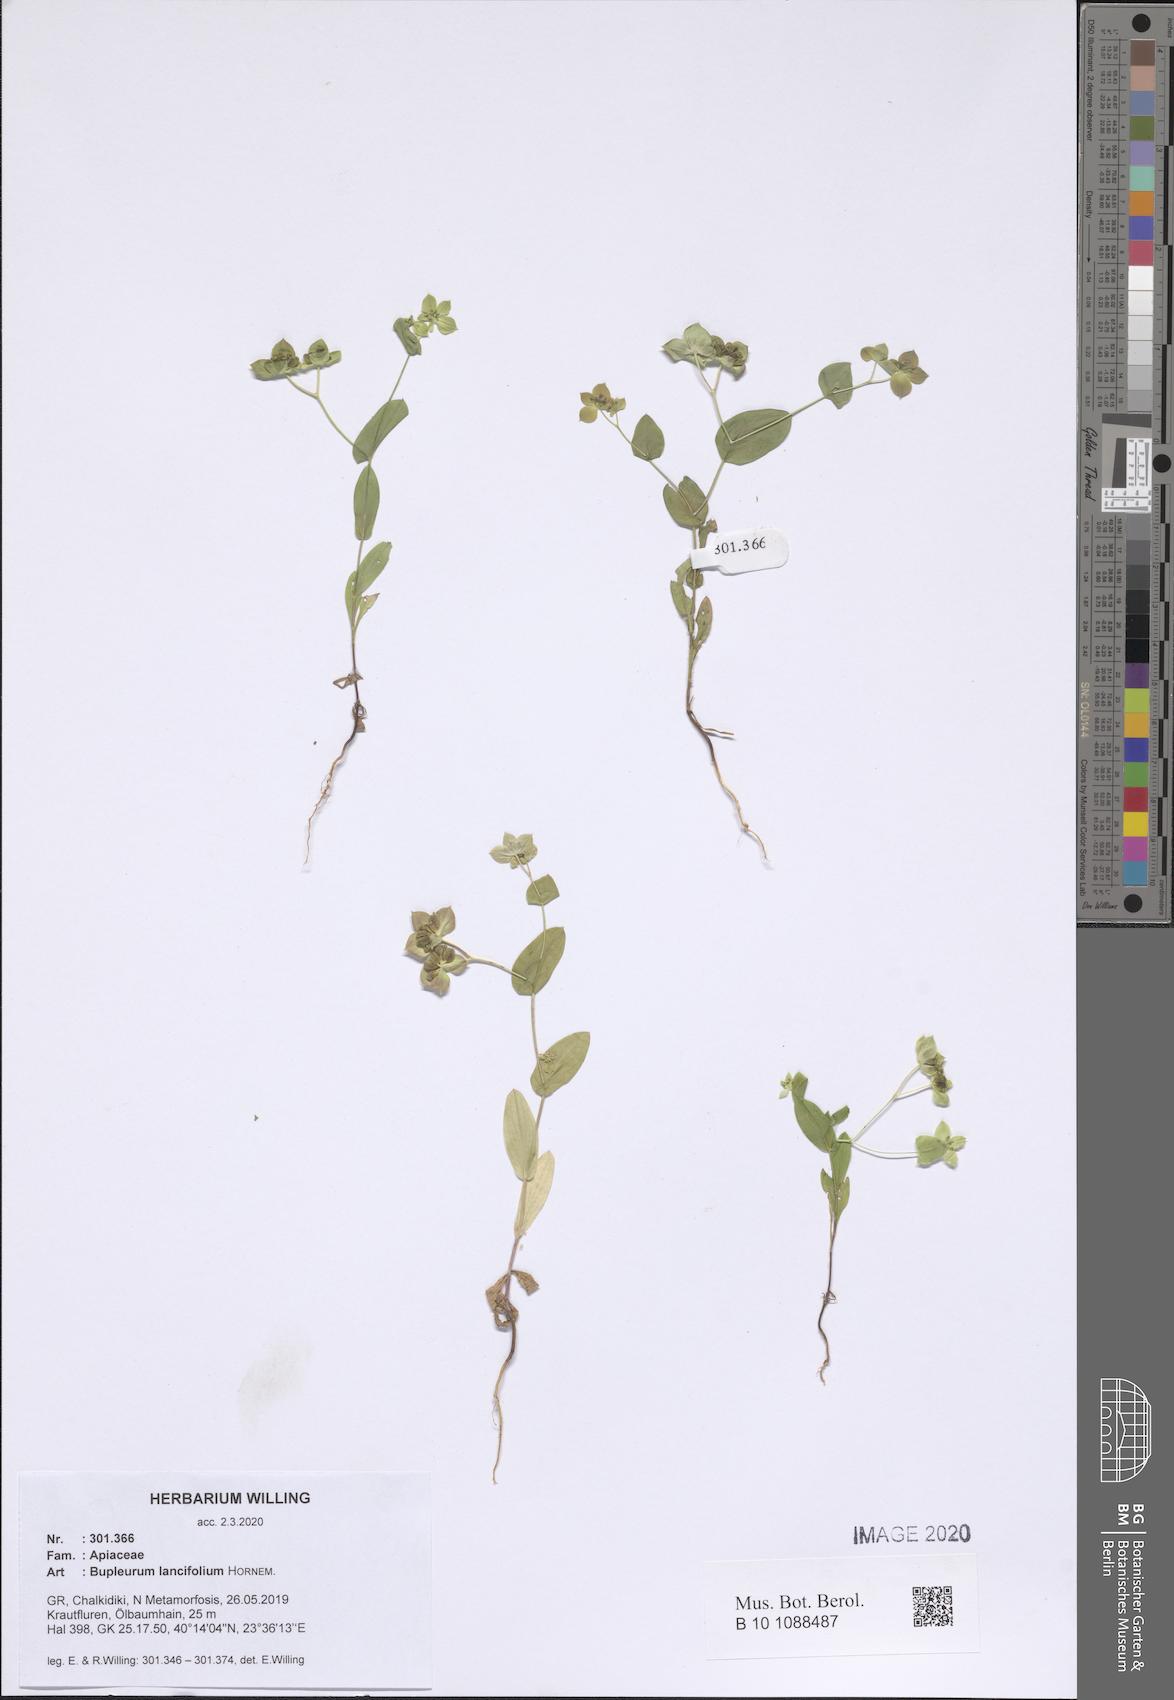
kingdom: Plantae
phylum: Tracheophyta
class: Magnoliopsida
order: Apiales
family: Apiaceae
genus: Bupleurum
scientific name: Bupleurum lancifolium
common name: False thorow-wax
